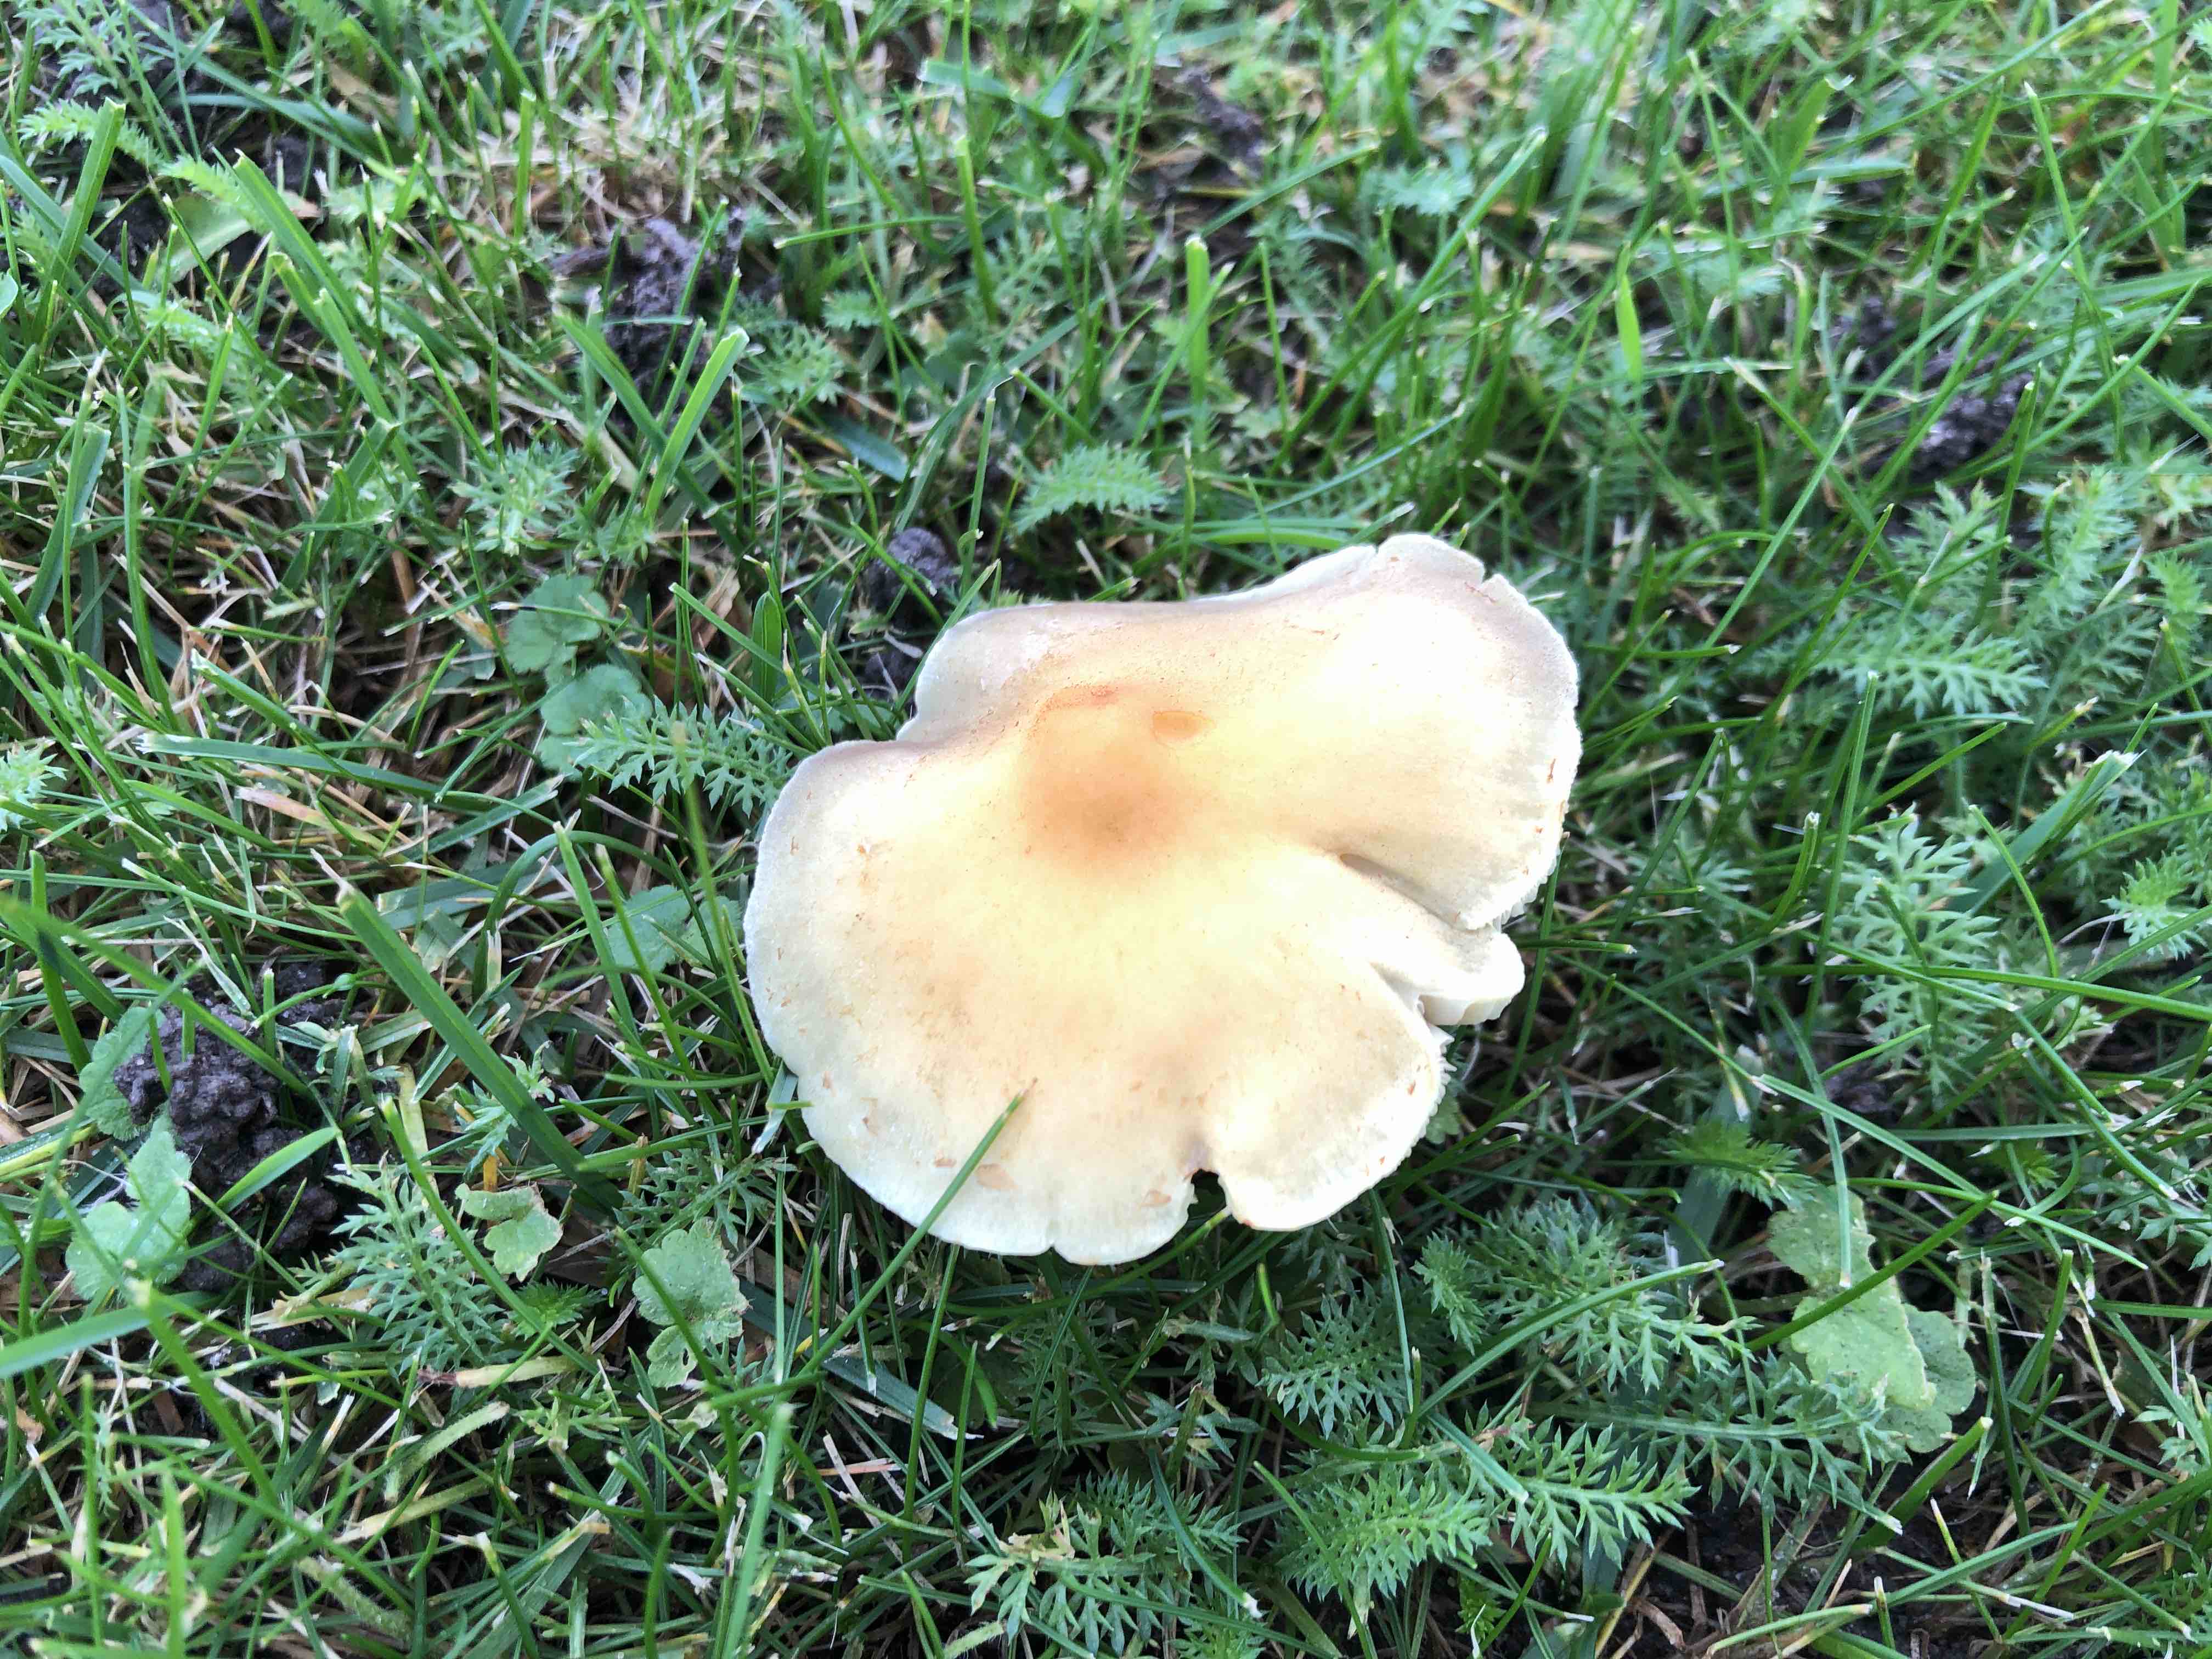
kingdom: Fungi
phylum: Basidiomycota
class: Agaricomycetes
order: Agaricales
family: Strophariaceae
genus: Hypholoma
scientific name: Hypholoma fasciculare
